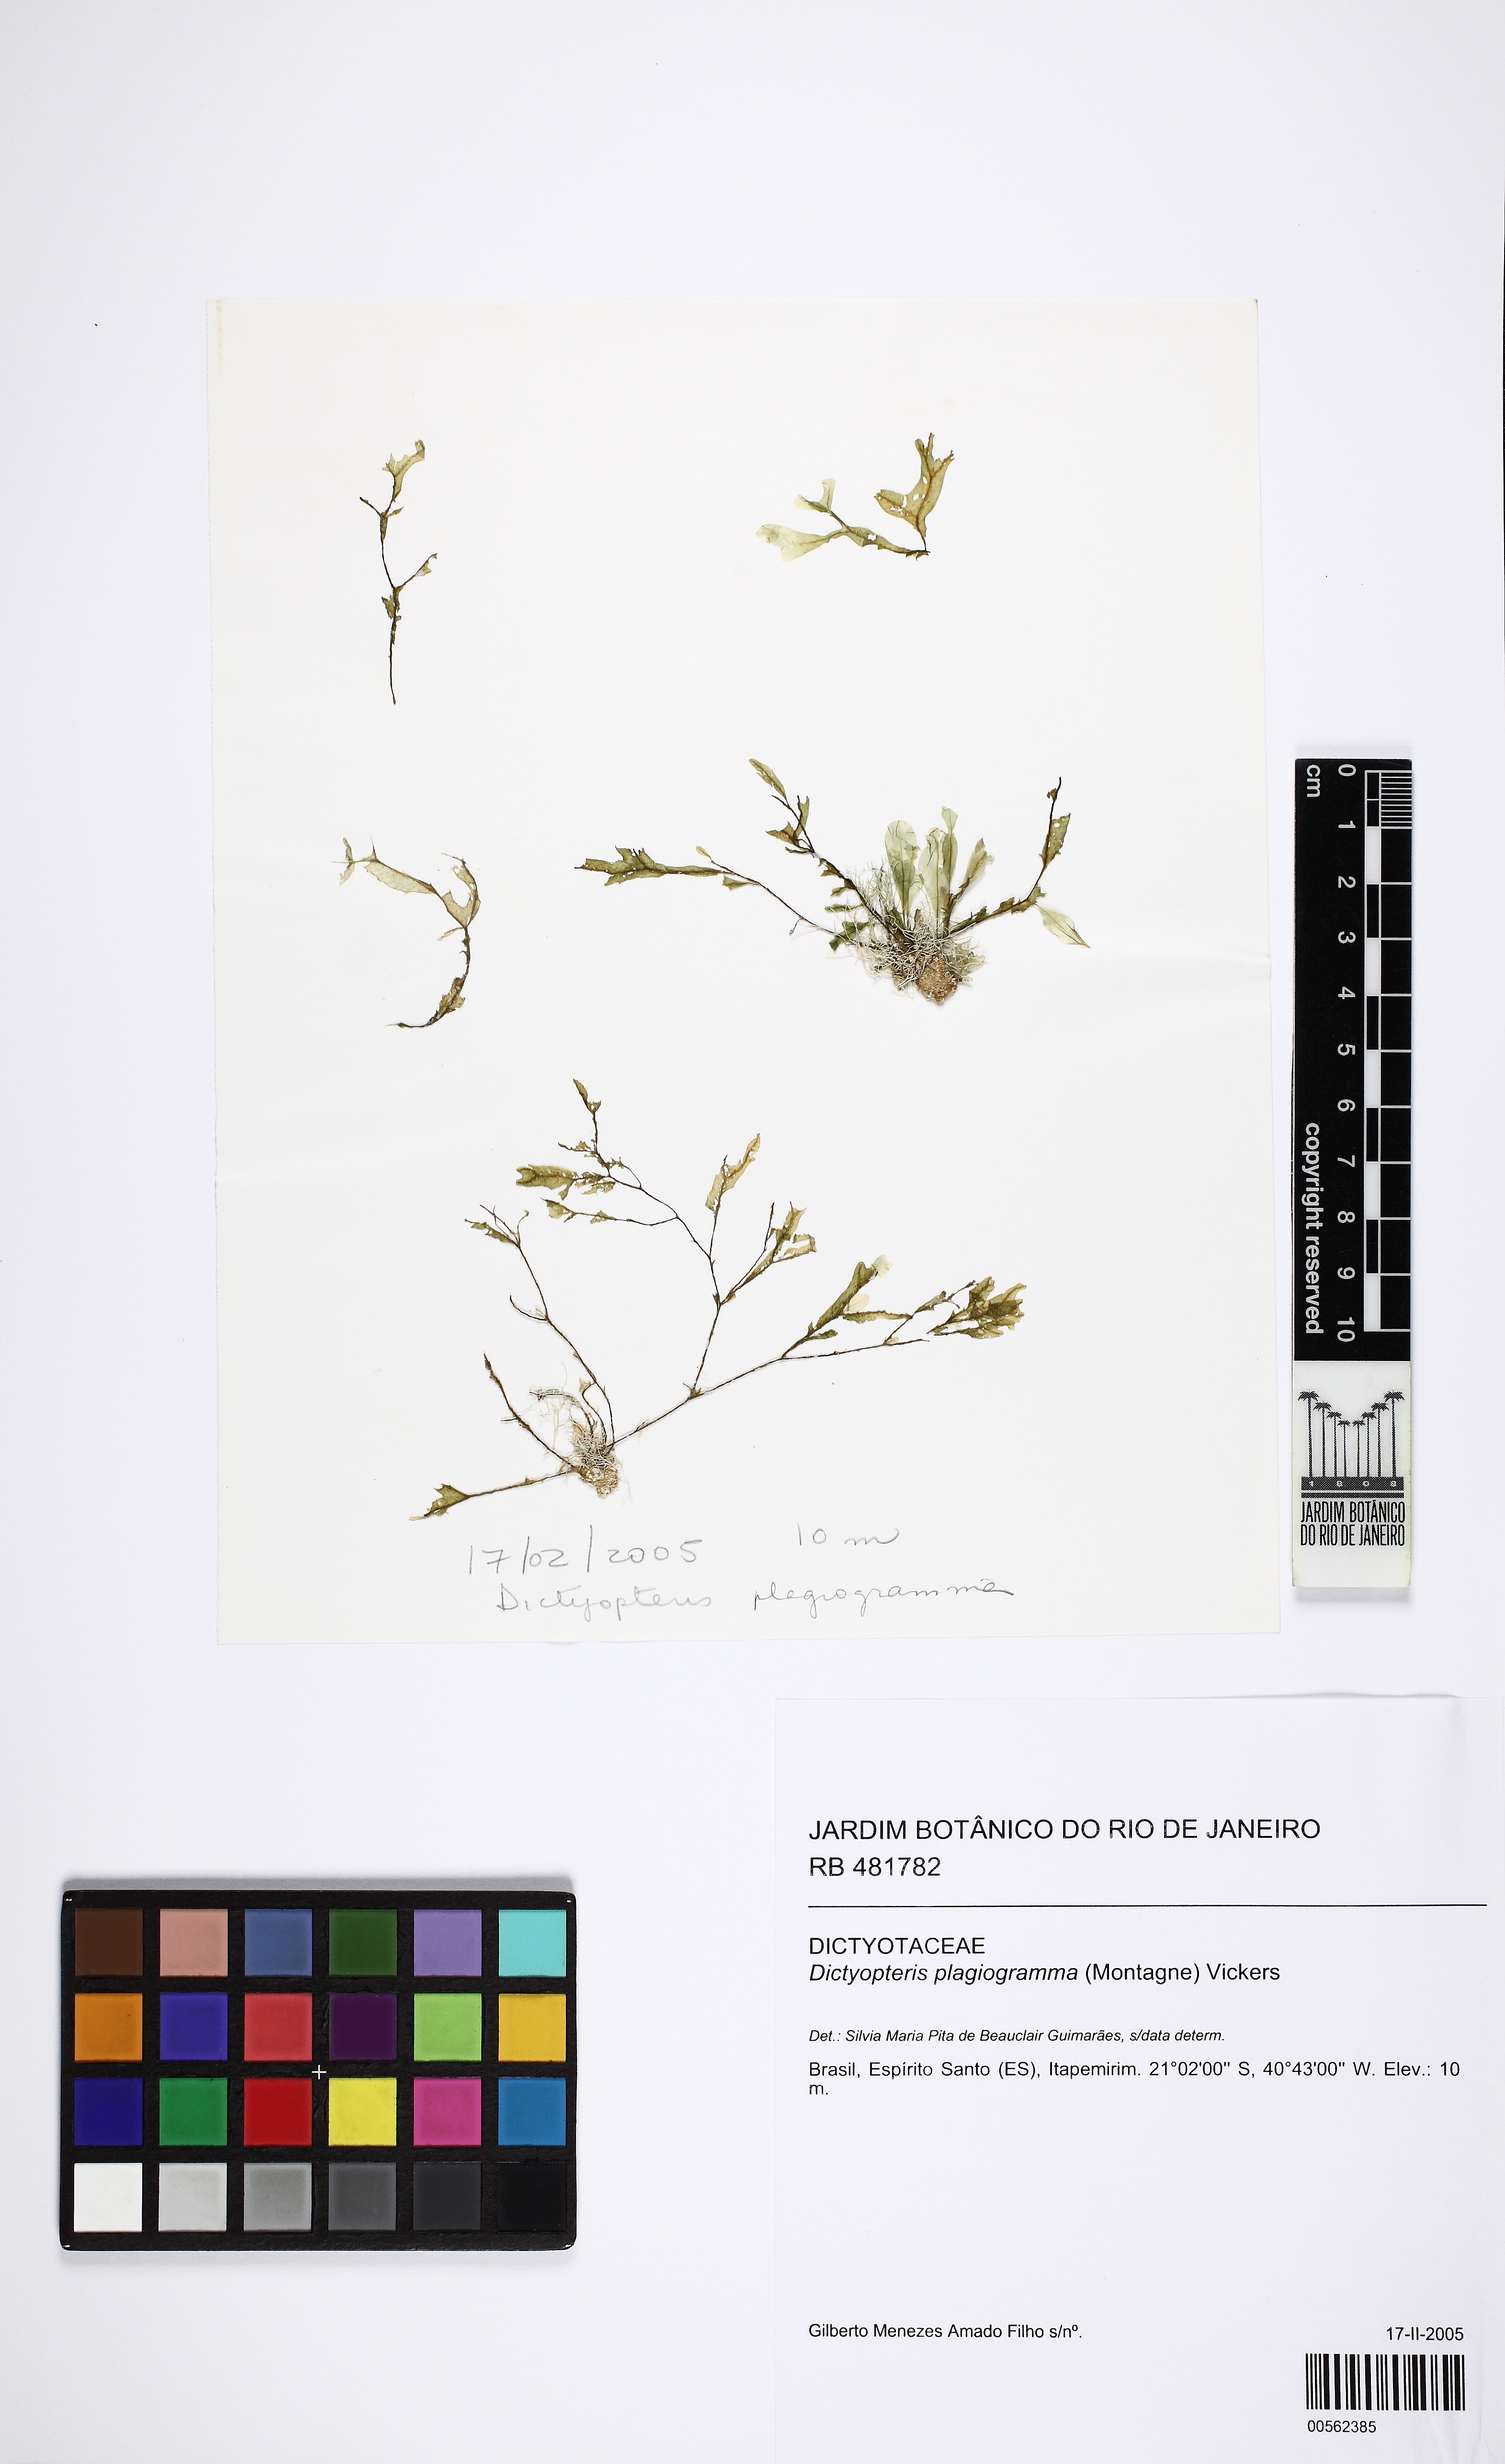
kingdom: Chromista
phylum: Ochrophyta
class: Phaeophyceae
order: Dictyotales
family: Dictyotaceae
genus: Dictyopteris
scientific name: Dictyopteris plagiogramma
